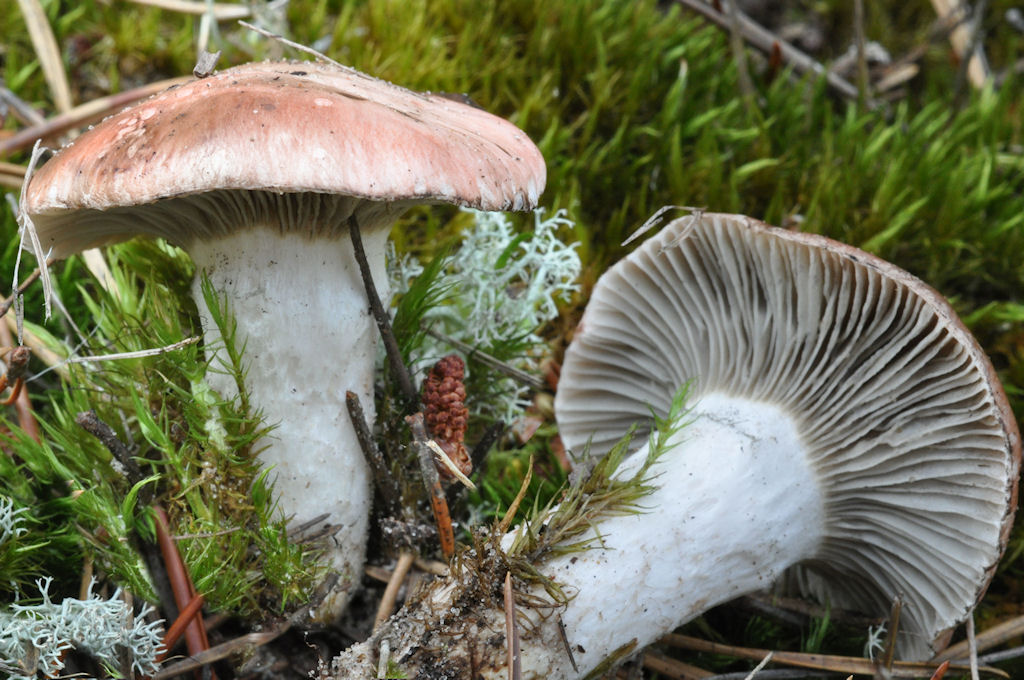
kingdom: Fungi
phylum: Basidiomycota
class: Agaricomycetes
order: Boletales
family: Gomphidiaceae
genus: Gomphidius
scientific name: Gomphidius roseus
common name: rosenrød slimslør
